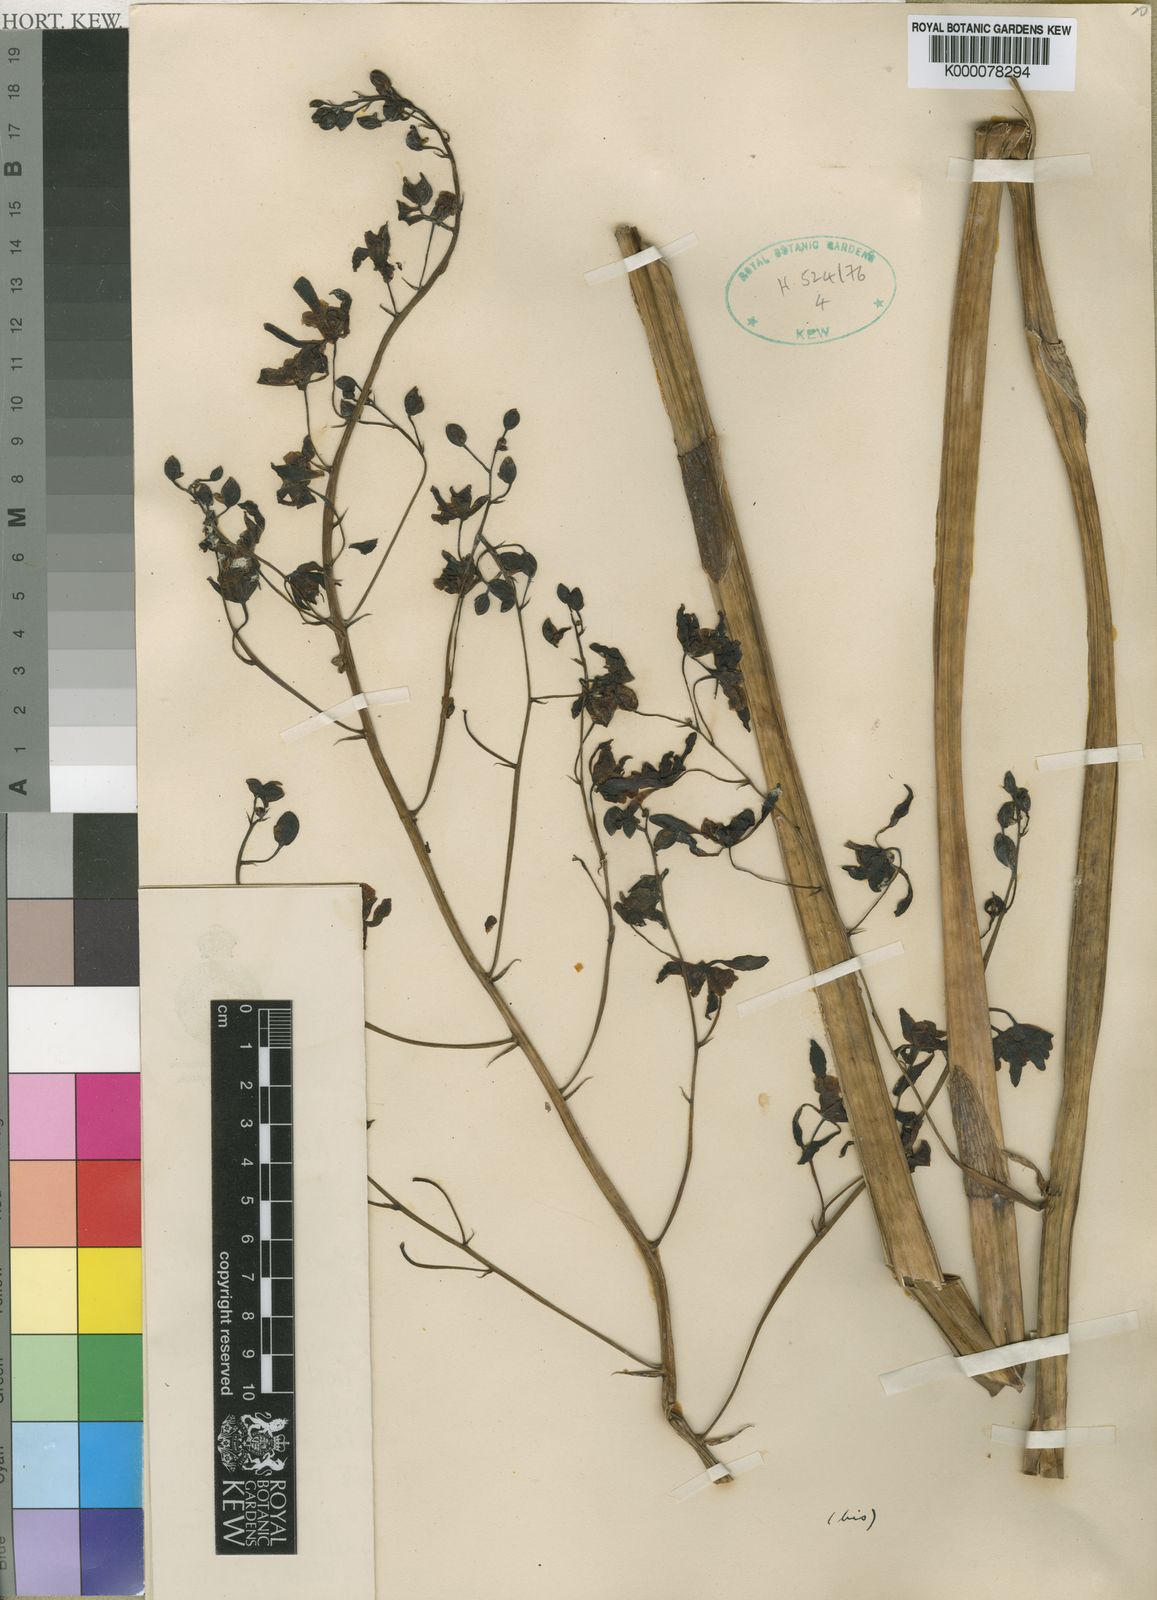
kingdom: Plantae
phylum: Tracheophyta
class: Liliopsida
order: Asparagales
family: Orchidaceae
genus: Eulophia
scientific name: Eulophia calcarata
